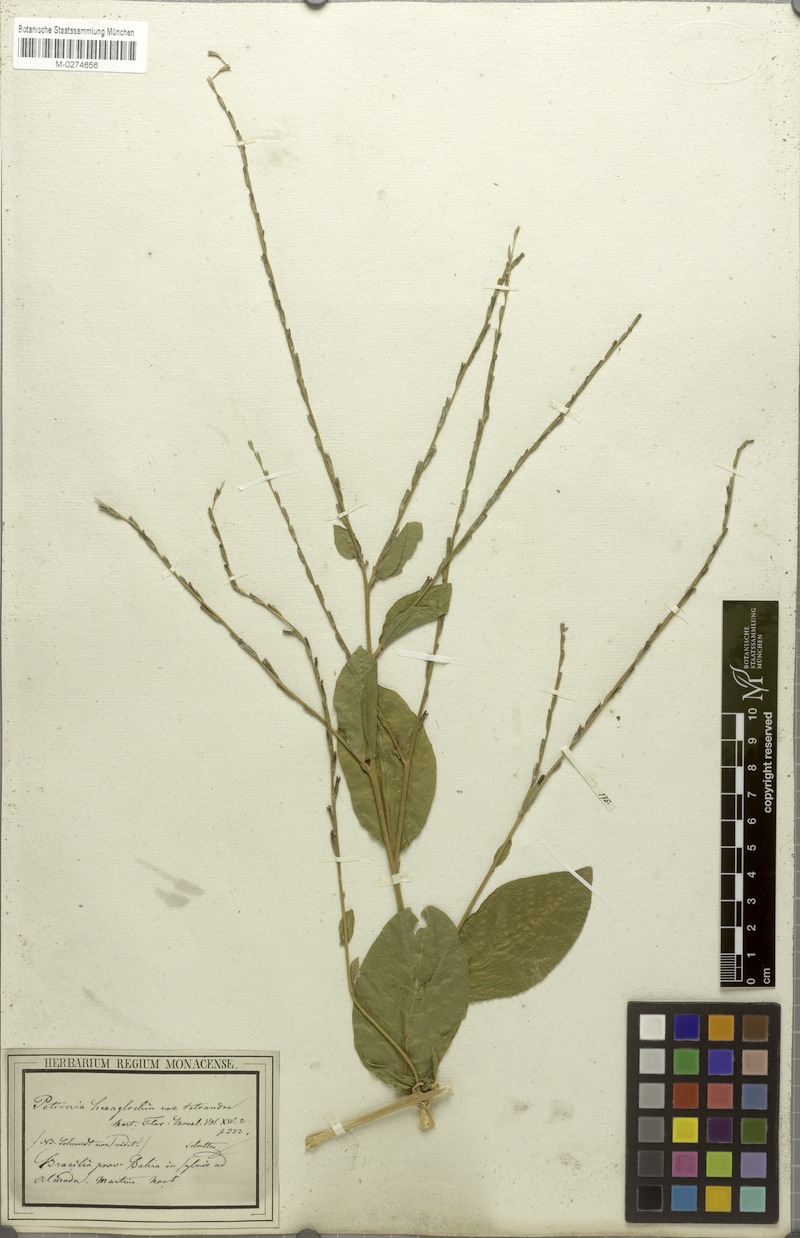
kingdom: Plantae
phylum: Tracheophyta
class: Magnoliopsida
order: Caryophyllales
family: Phytolaccaceae
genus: Petiveria
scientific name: Petiveria alliacea
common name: Garlicweed
